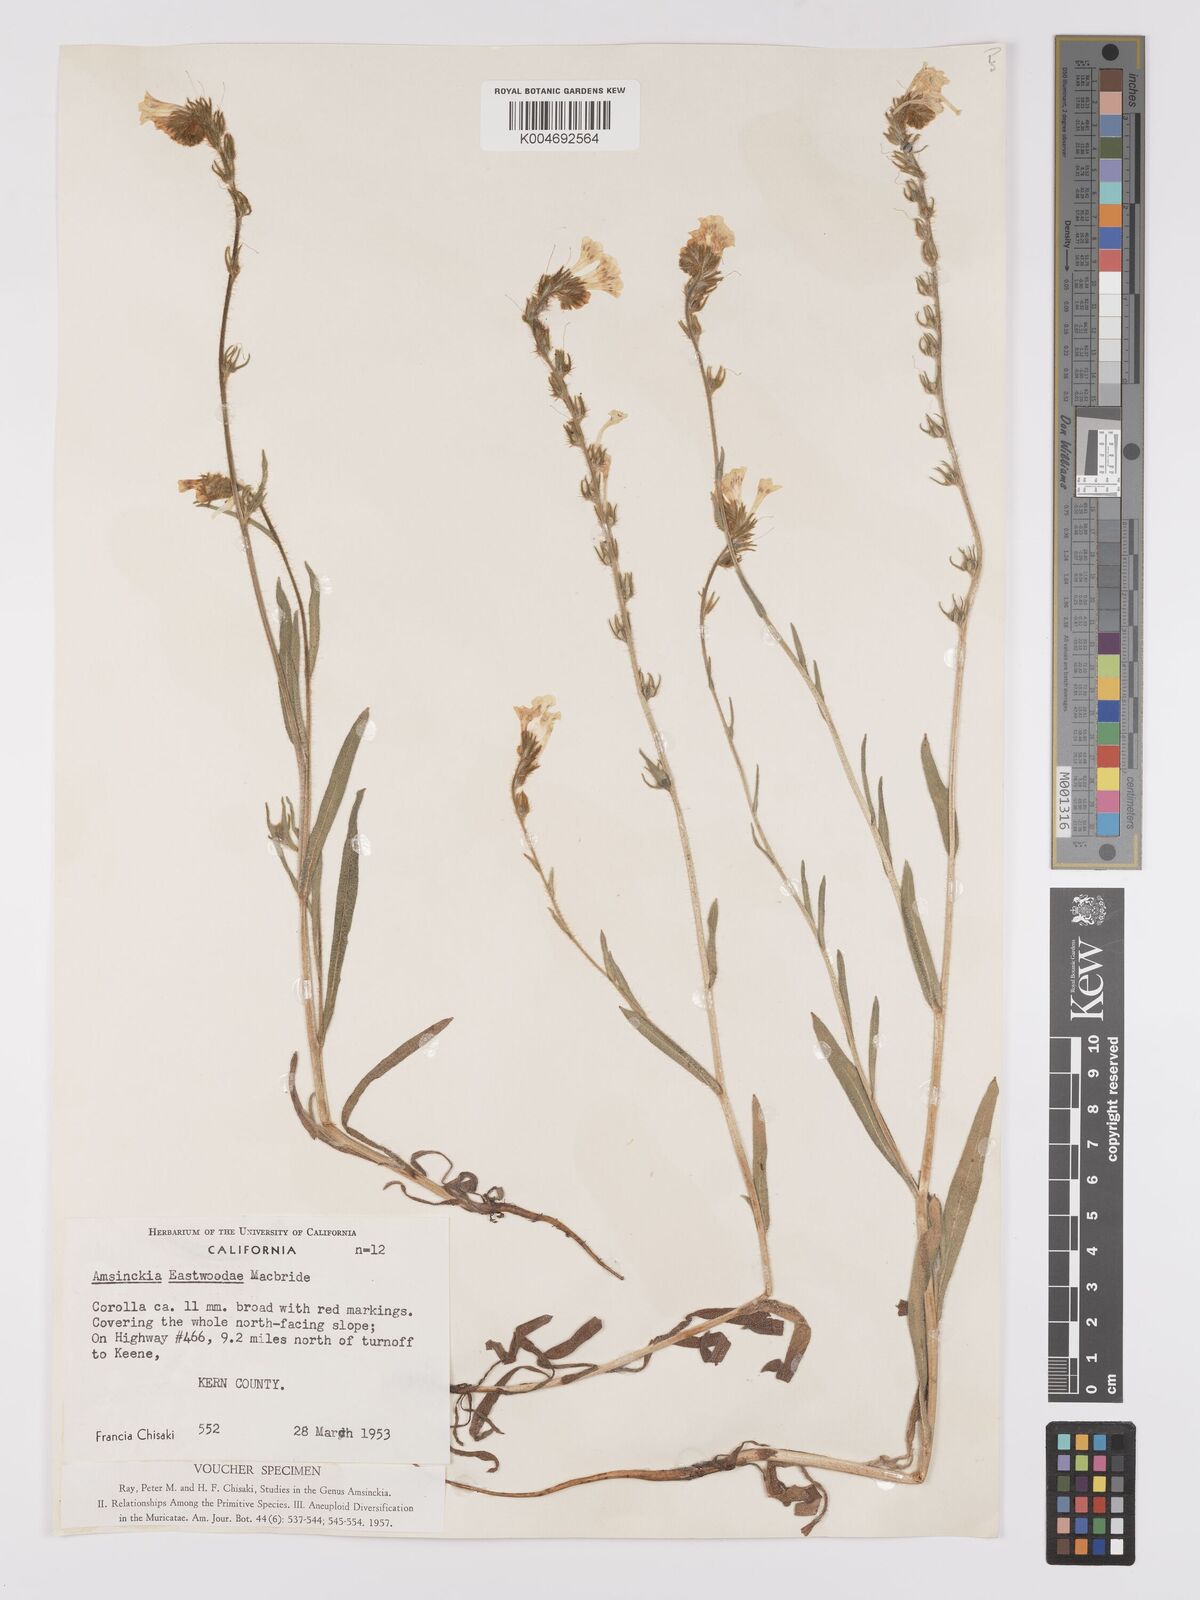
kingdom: Plantae
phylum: Tracheophyta
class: Magnoliopsida
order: Boraginales
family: Boraginaceae
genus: Amsinckia
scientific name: Amsinckia eastwoodiae
